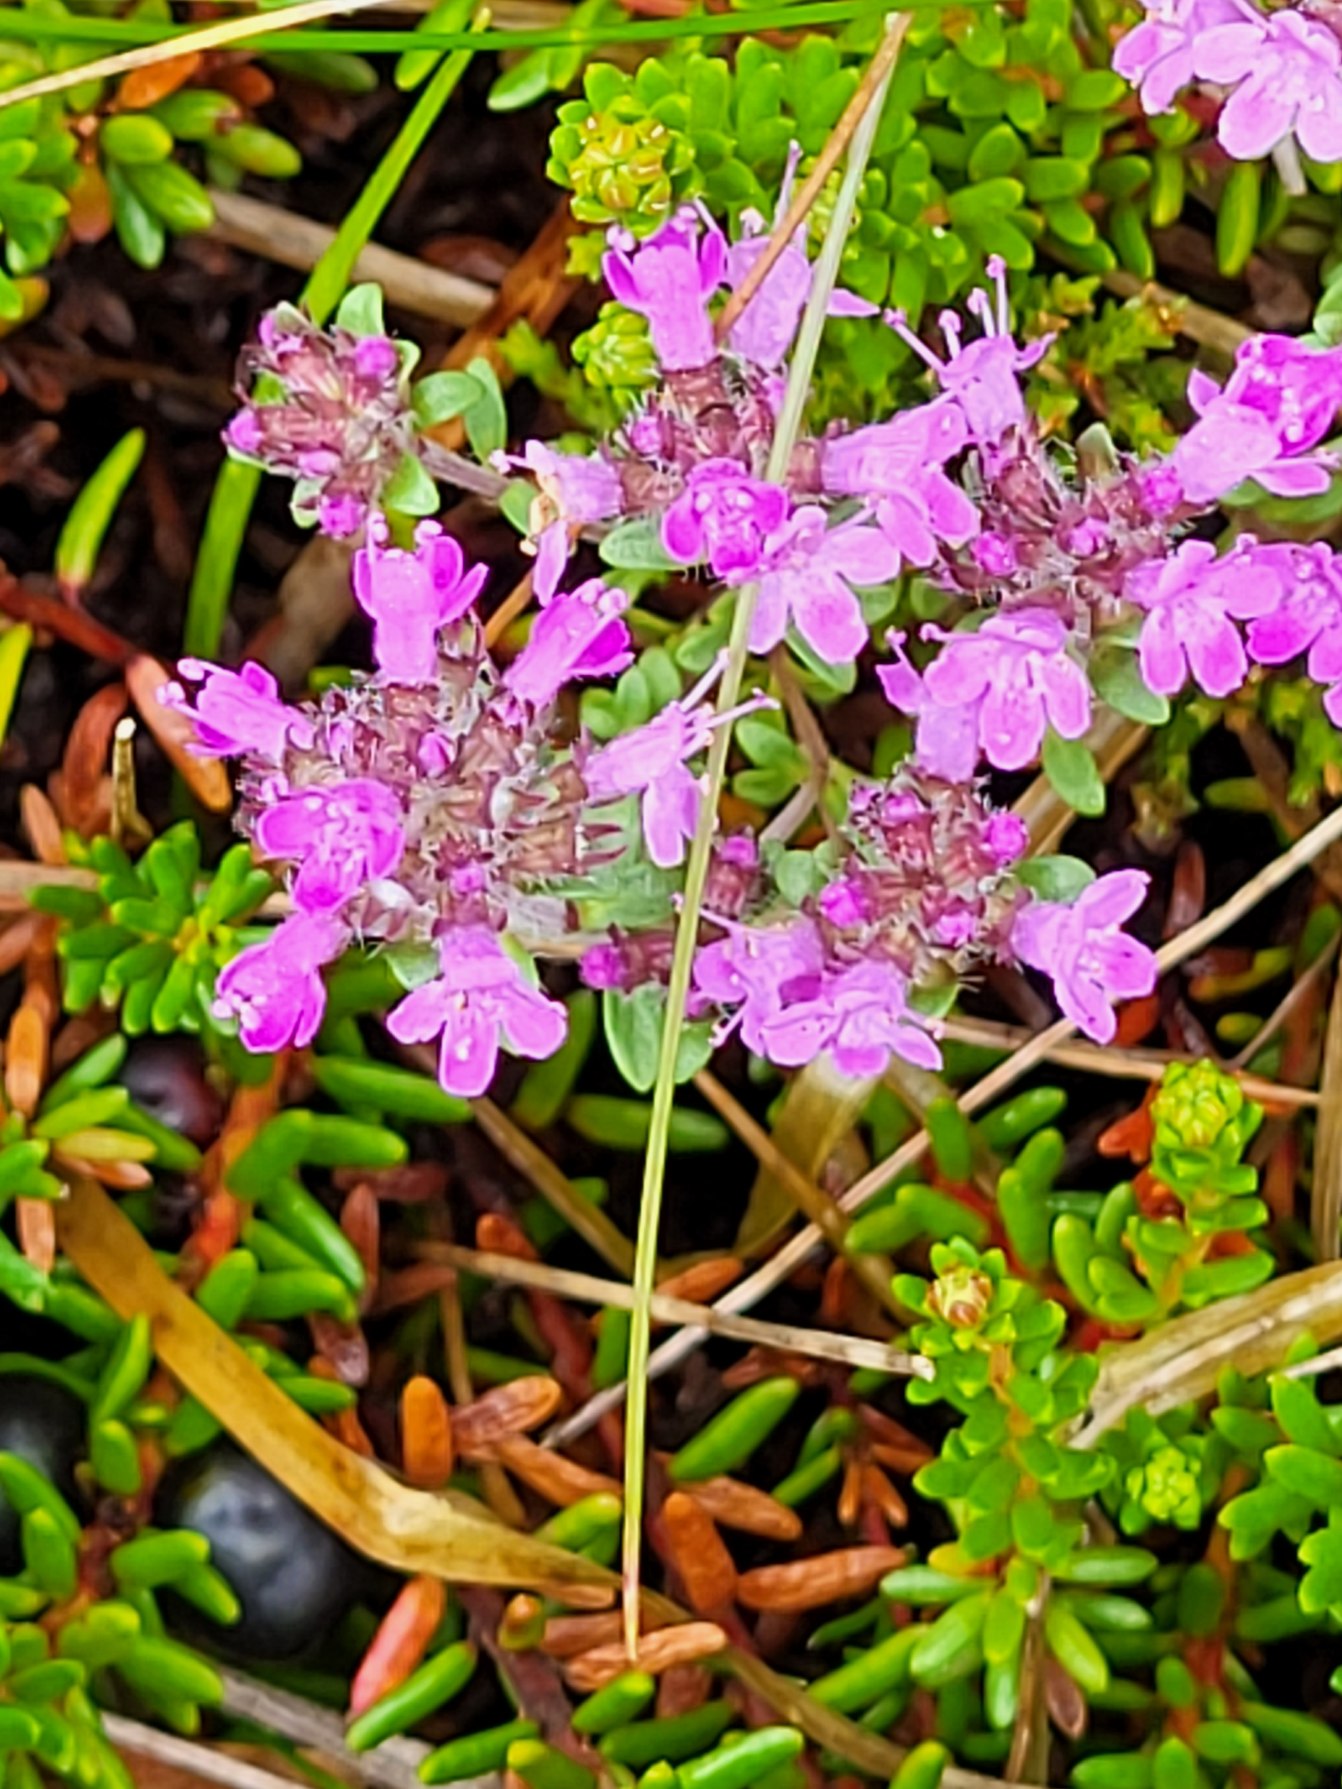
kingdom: Plantae
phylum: Tracheophyta
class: Magnoliopsida
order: Lamiales
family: Lamiaceae
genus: Thymus
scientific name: Thymus serpyllum
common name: Smalbladet timian
